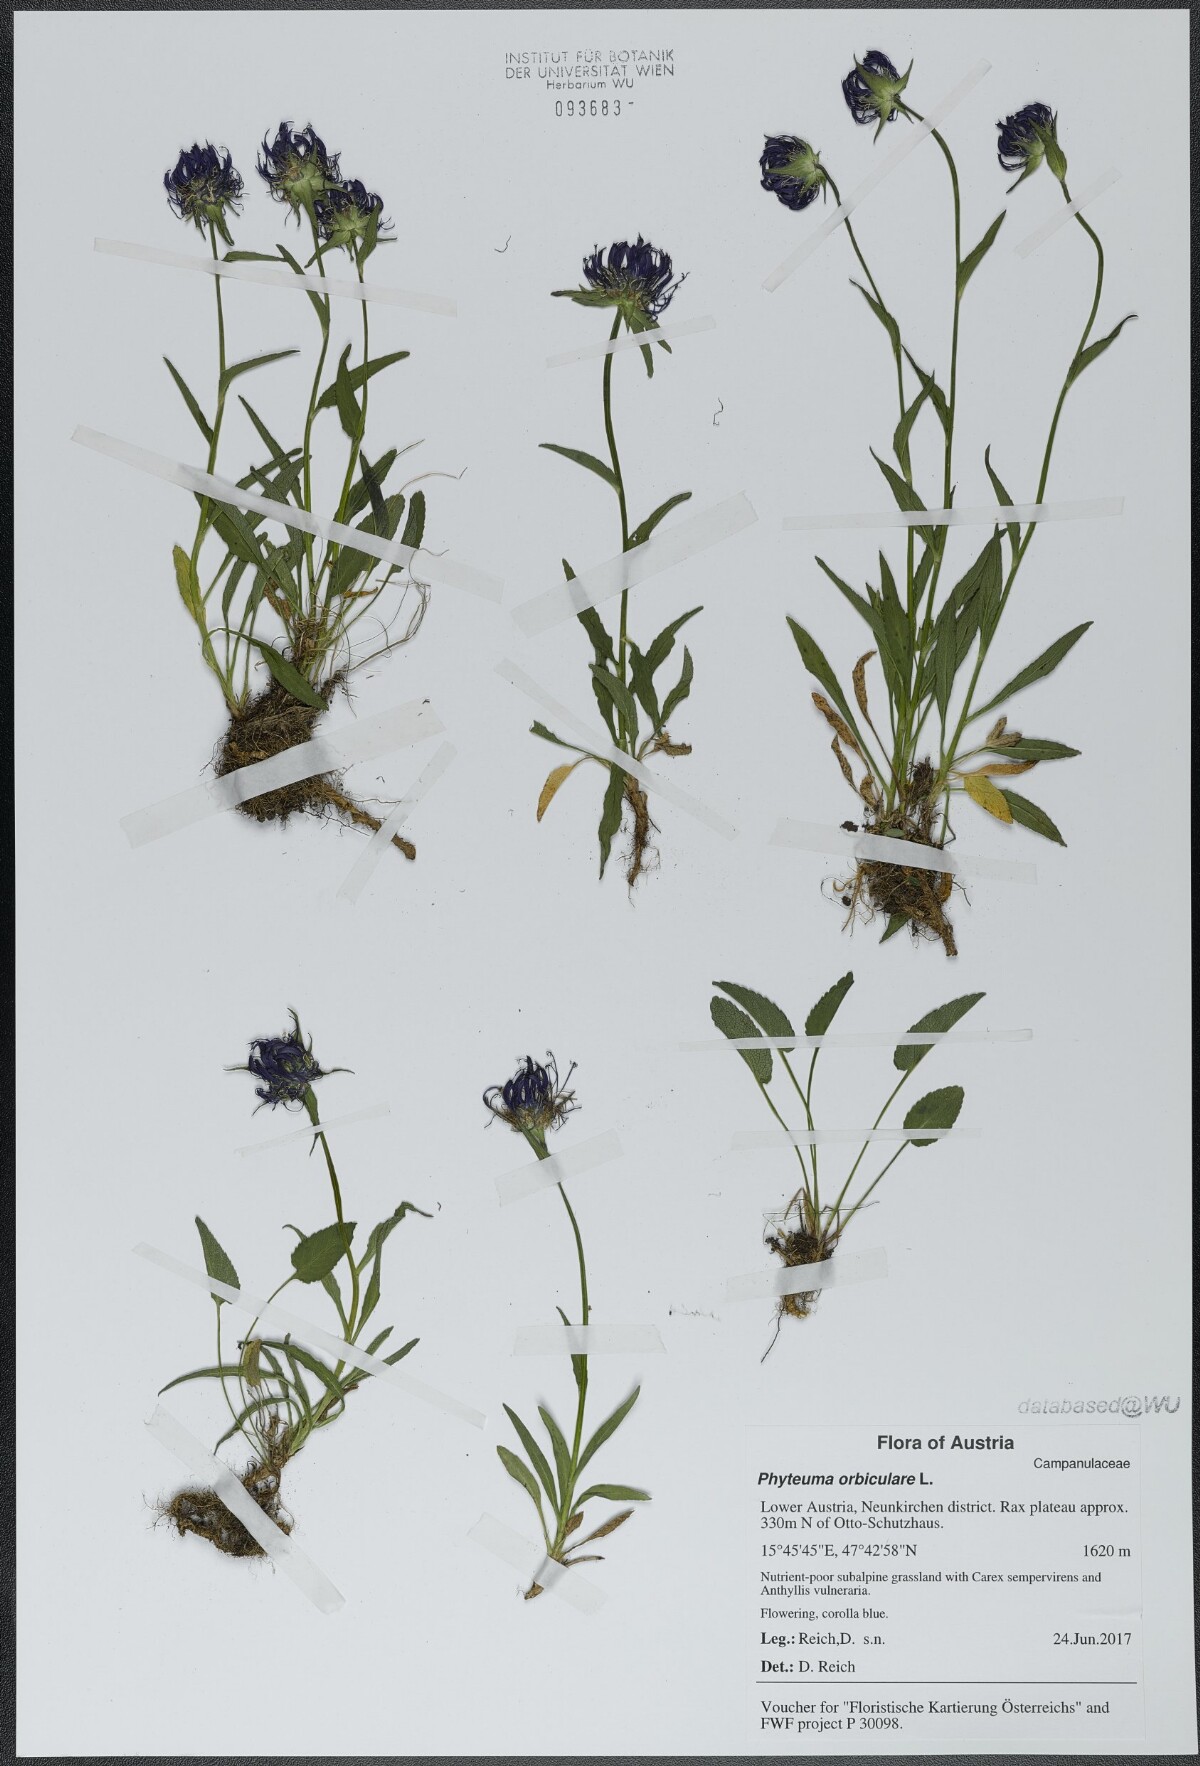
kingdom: Plantae
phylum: Tracheophyta
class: Magnoliopsida
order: Asterales
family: Campanulaceae
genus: Phyteuma
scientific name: Phyteuma orbiculare
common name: Round-headed rampion
